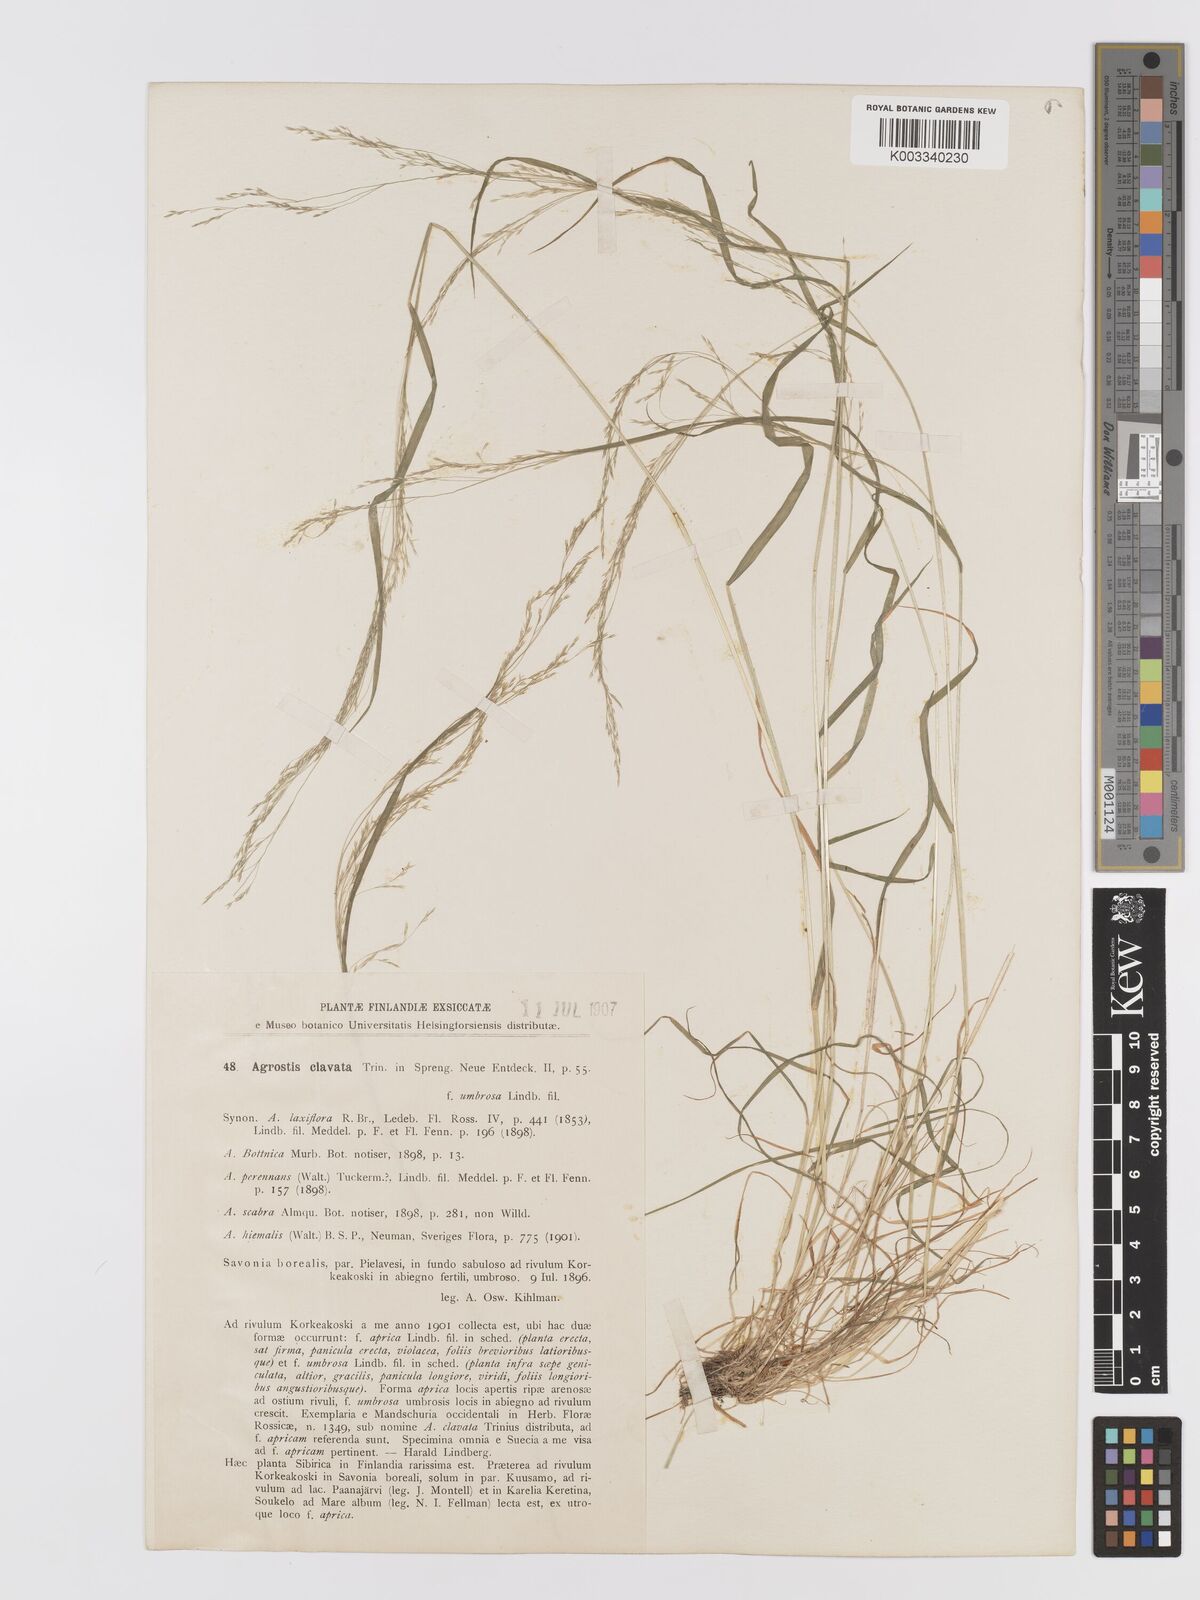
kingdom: Plantae
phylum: Tracheophyta
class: Liliopsida
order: Poales
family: Poaceae
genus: Agrostis
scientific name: Agrostis clavata
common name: Clavate bent
